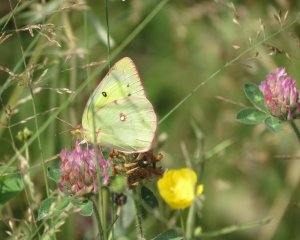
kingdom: Animalia
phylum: Arthropoda
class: Insecta
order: Lepidoptera
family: Pieridae
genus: Colias
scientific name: Colias philodice
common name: Clouded Sulphur
